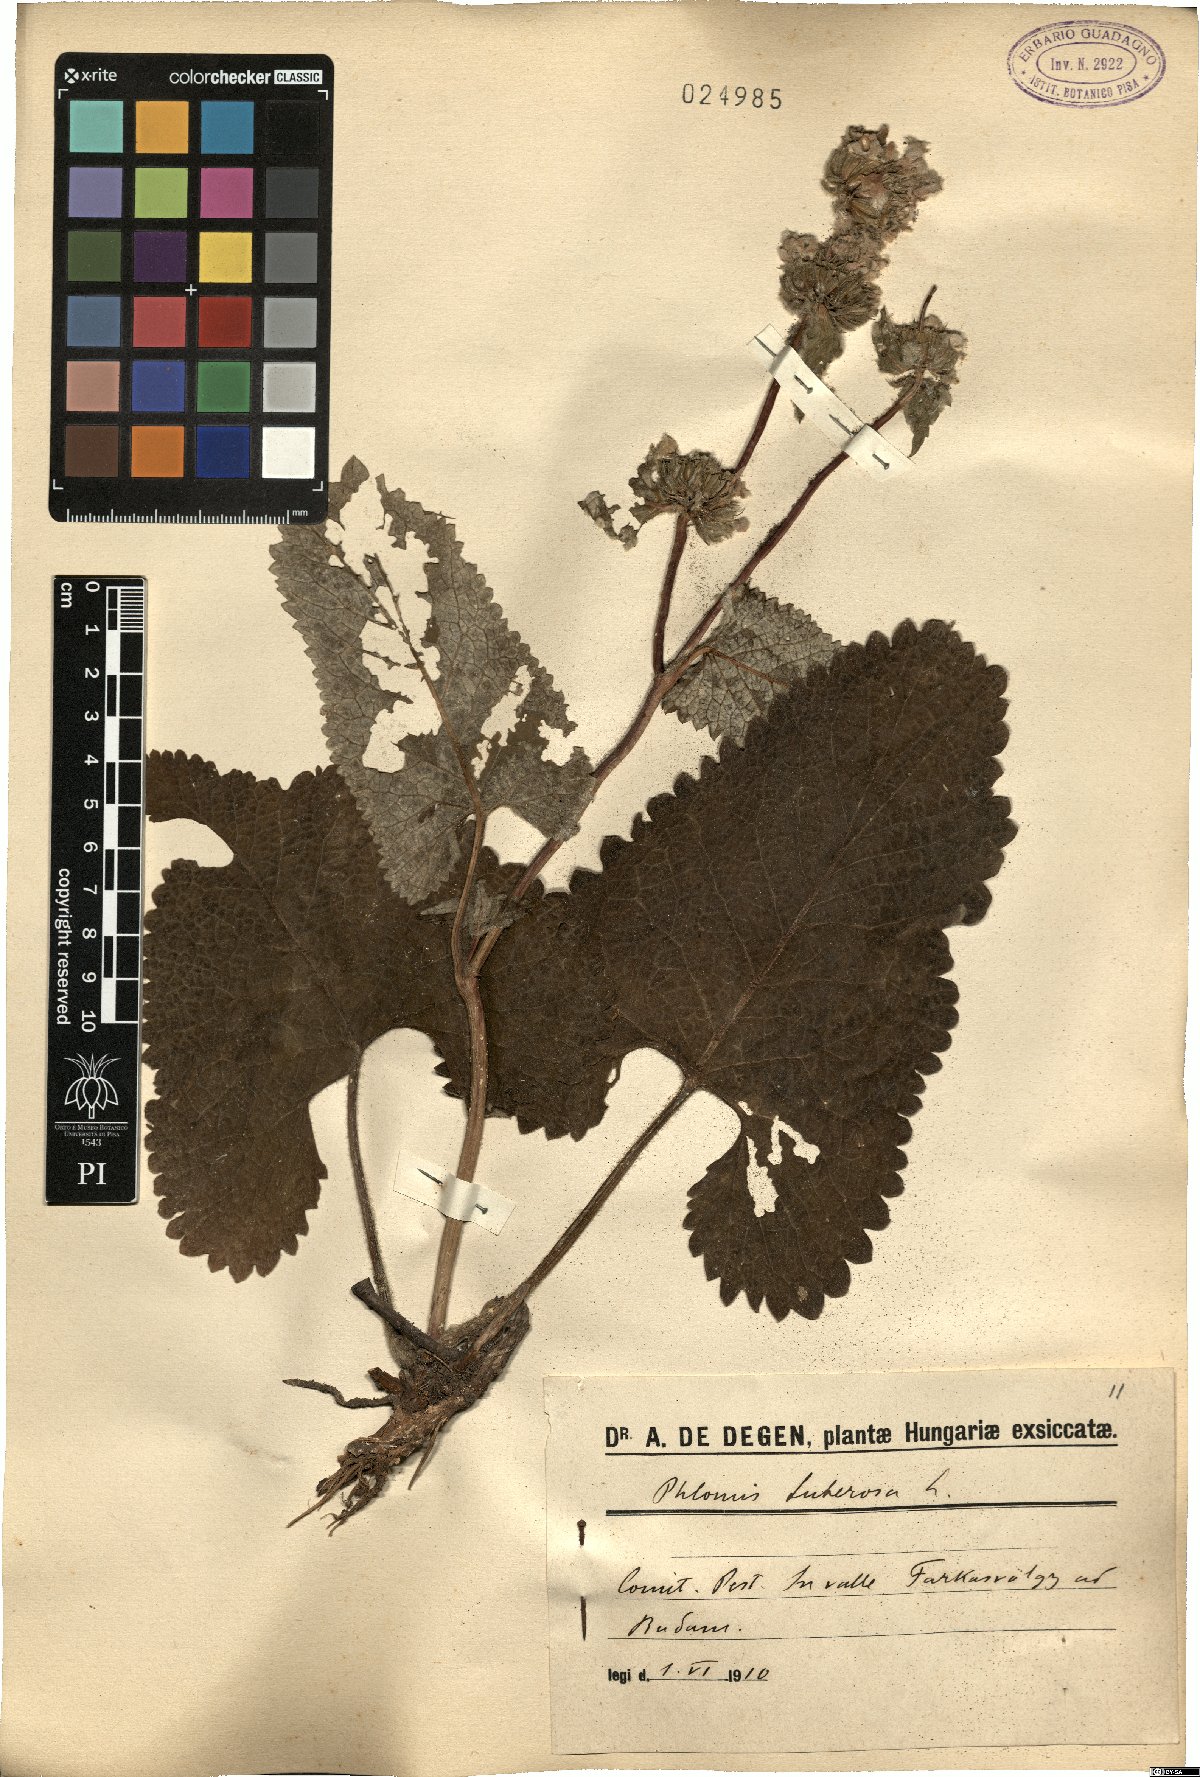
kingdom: Plantae
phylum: Tracheophyta
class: Magnoliopsida
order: Lamiales
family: Lamiaceae
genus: Phlomoides
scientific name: Phlomoides tuberosa
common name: Tuberous jerusalem sage
